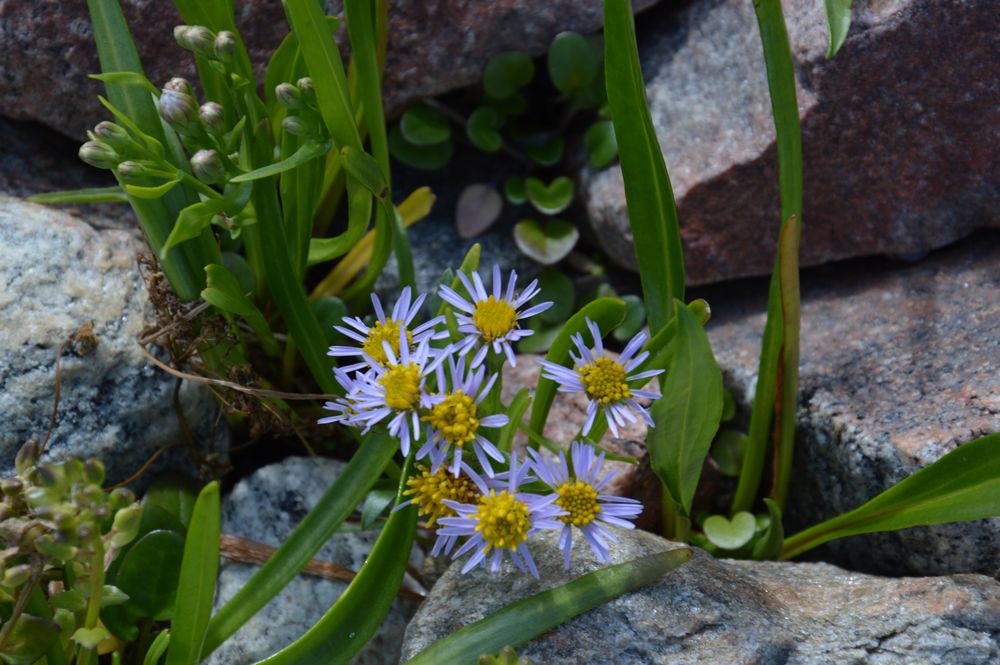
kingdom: Plantae
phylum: Tracheophyta
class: Magnoliopsida
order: Asterales
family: Asteraceae
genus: Tripolium
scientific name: Tripolium pannonicum
